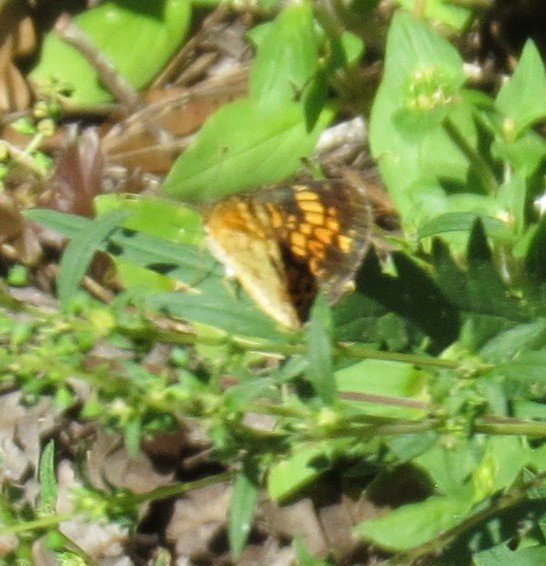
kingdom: Animalia
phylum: Arthropoda
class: Insecta
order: Lepidoptera
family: Nymphalidae
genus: Phyciodes
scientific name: Phyciodes tharos
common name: Pearl Crescent
